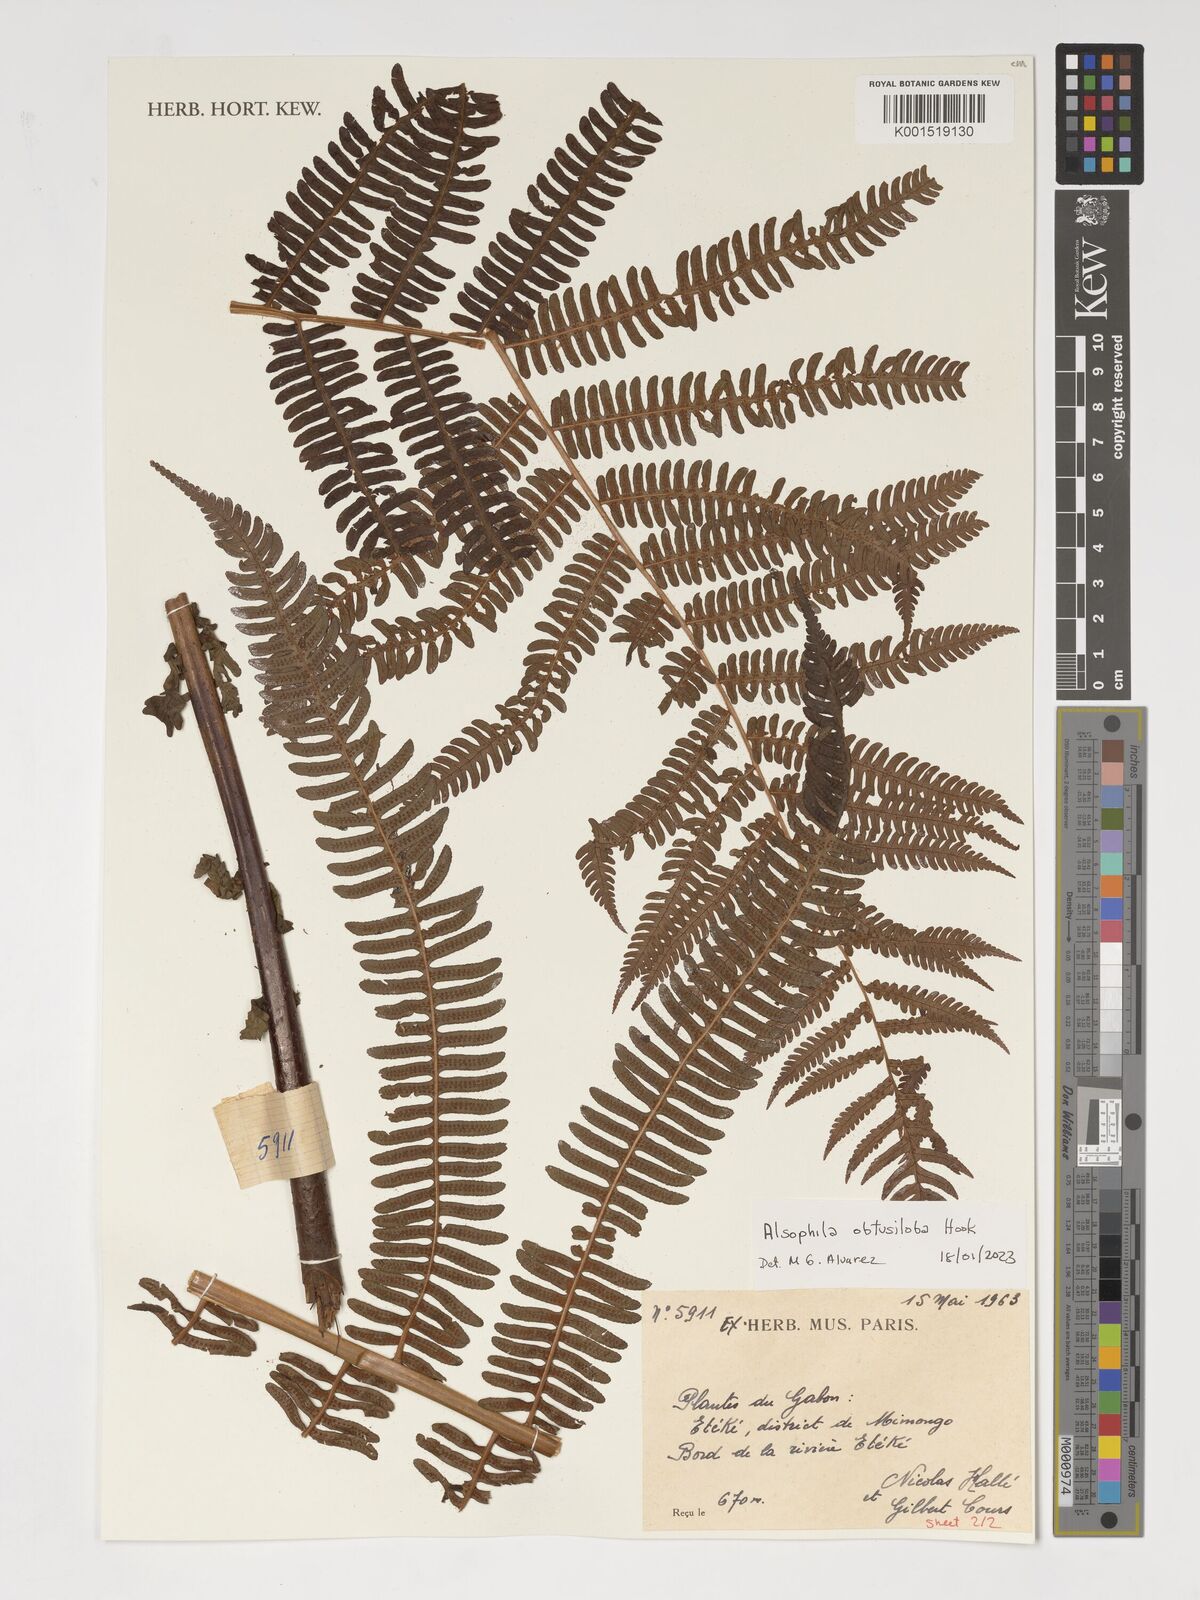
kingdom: Plantae
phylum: Tracheophyta
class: Polypodiopsida
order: Cyatheales
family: Cyatheaceae
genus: Alsophila
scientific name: Alsophila obtusiloba
